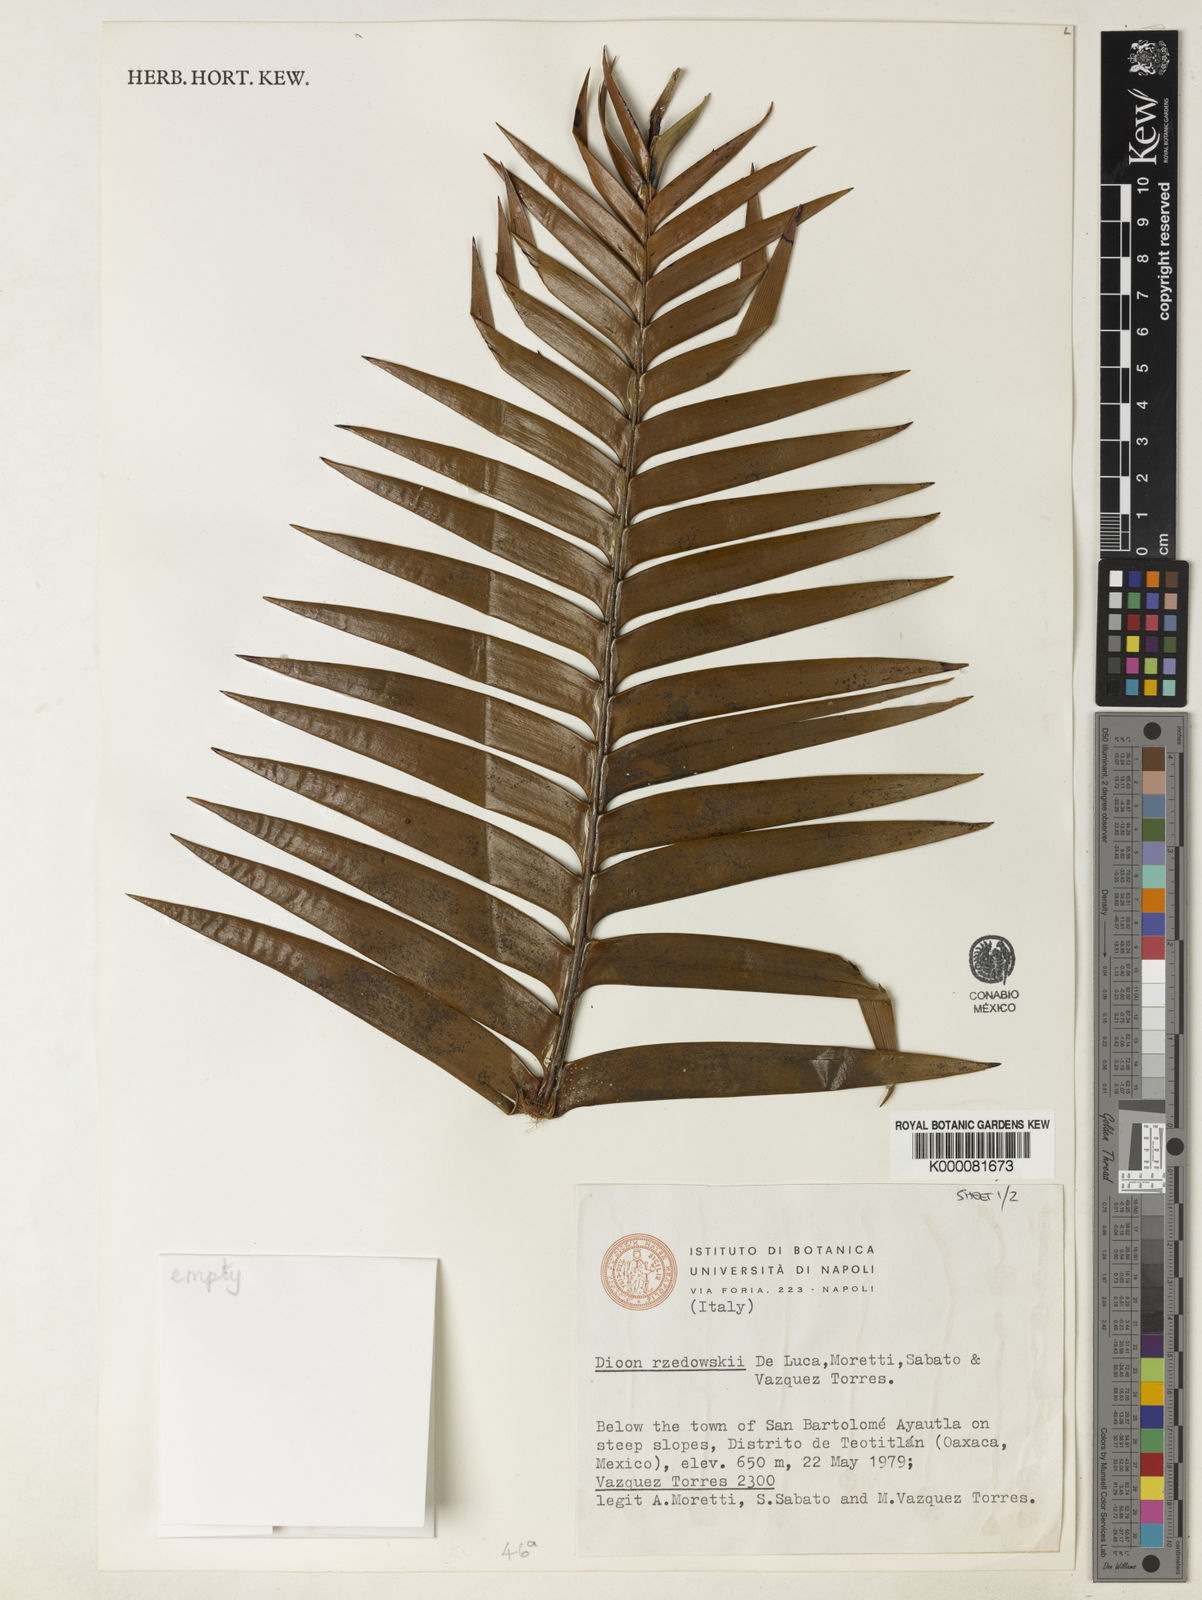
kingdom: Plantae
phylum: Tracheophyta
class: Cycadopsida
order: Cycadales
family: Zamiaceae
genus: Dioon
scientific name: Dioon rzedowskii
